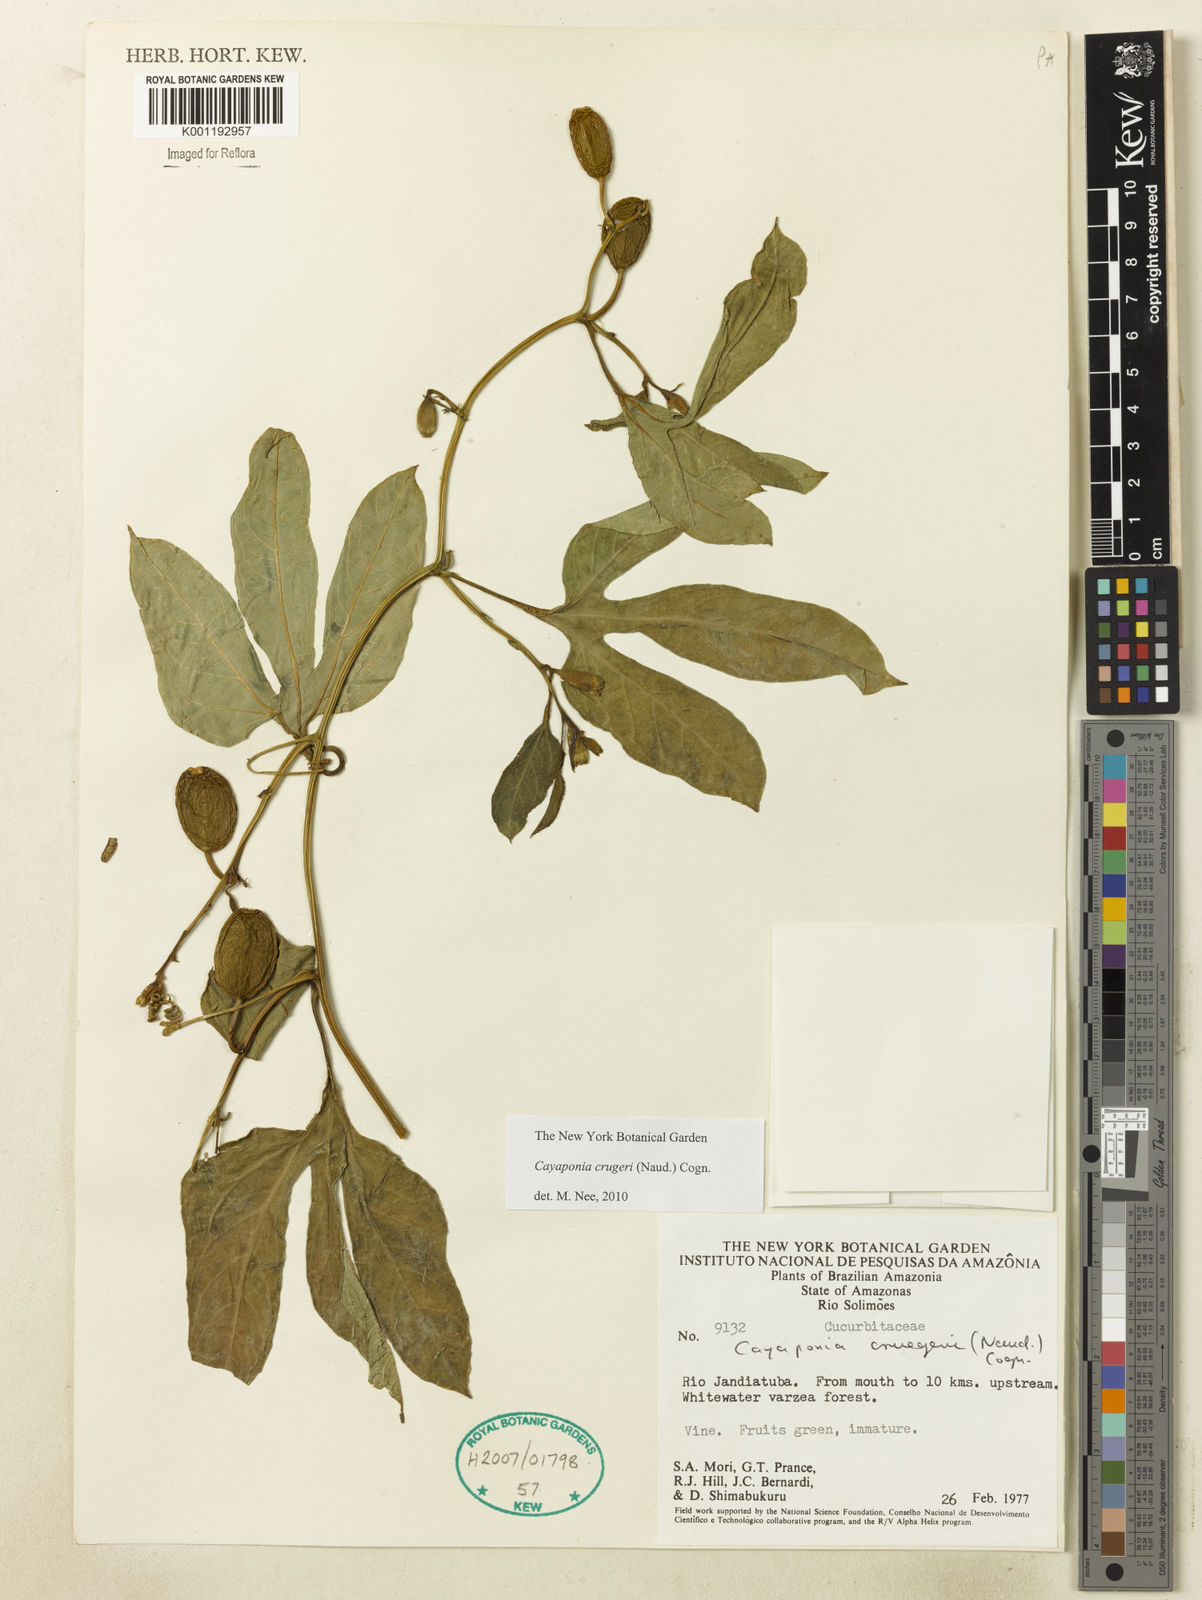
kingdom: Plantae
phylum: Tracheophyta
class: Magnoliopsida
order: Cucurbitales
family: Cucurbitaceae
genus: Cayaponia
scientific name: Cayaponia cruegeri
